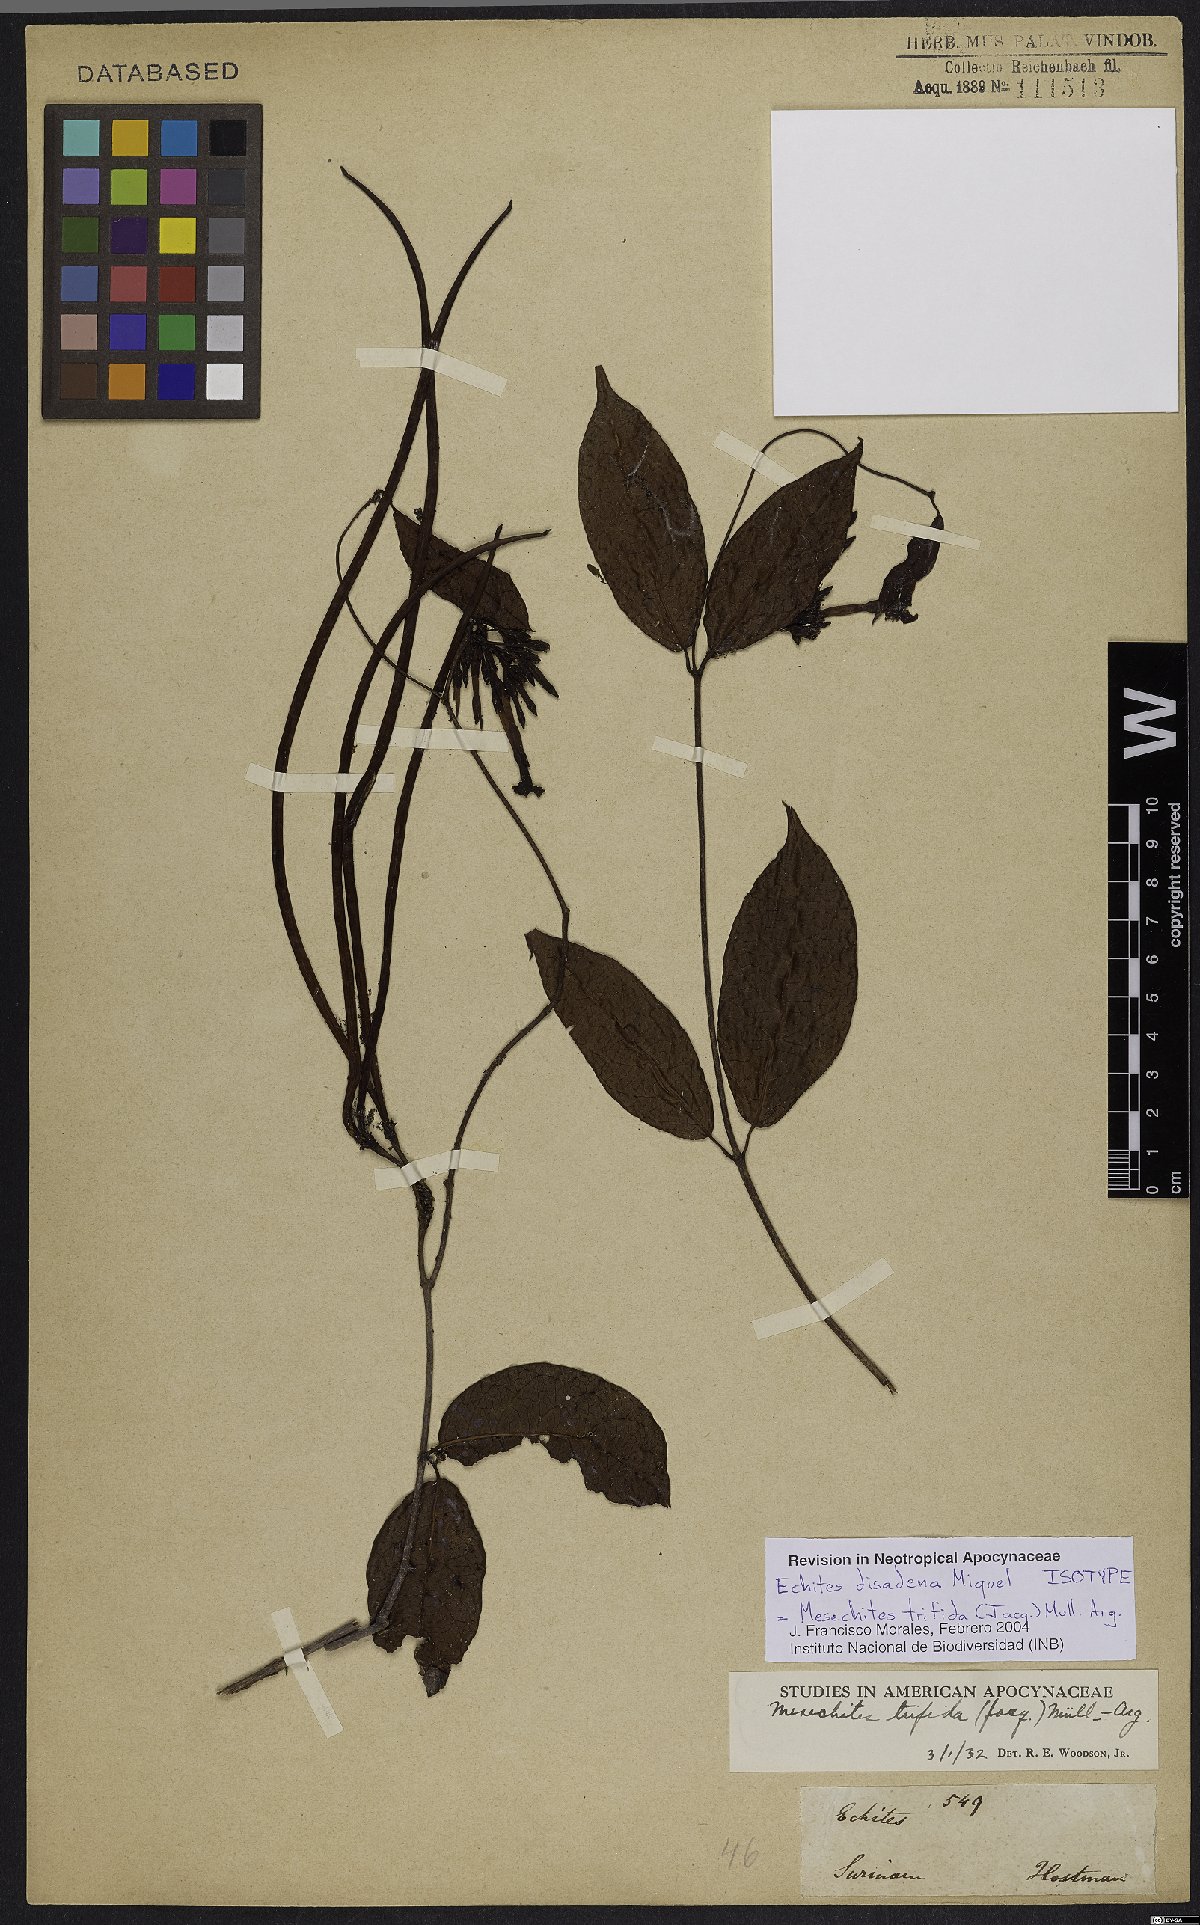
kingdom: Plantae
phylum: Tracheophyta
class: Magnoliopsida
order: Gentianales
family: Apocynaceae
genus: Mesechites
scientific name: Mesechites trifidus
